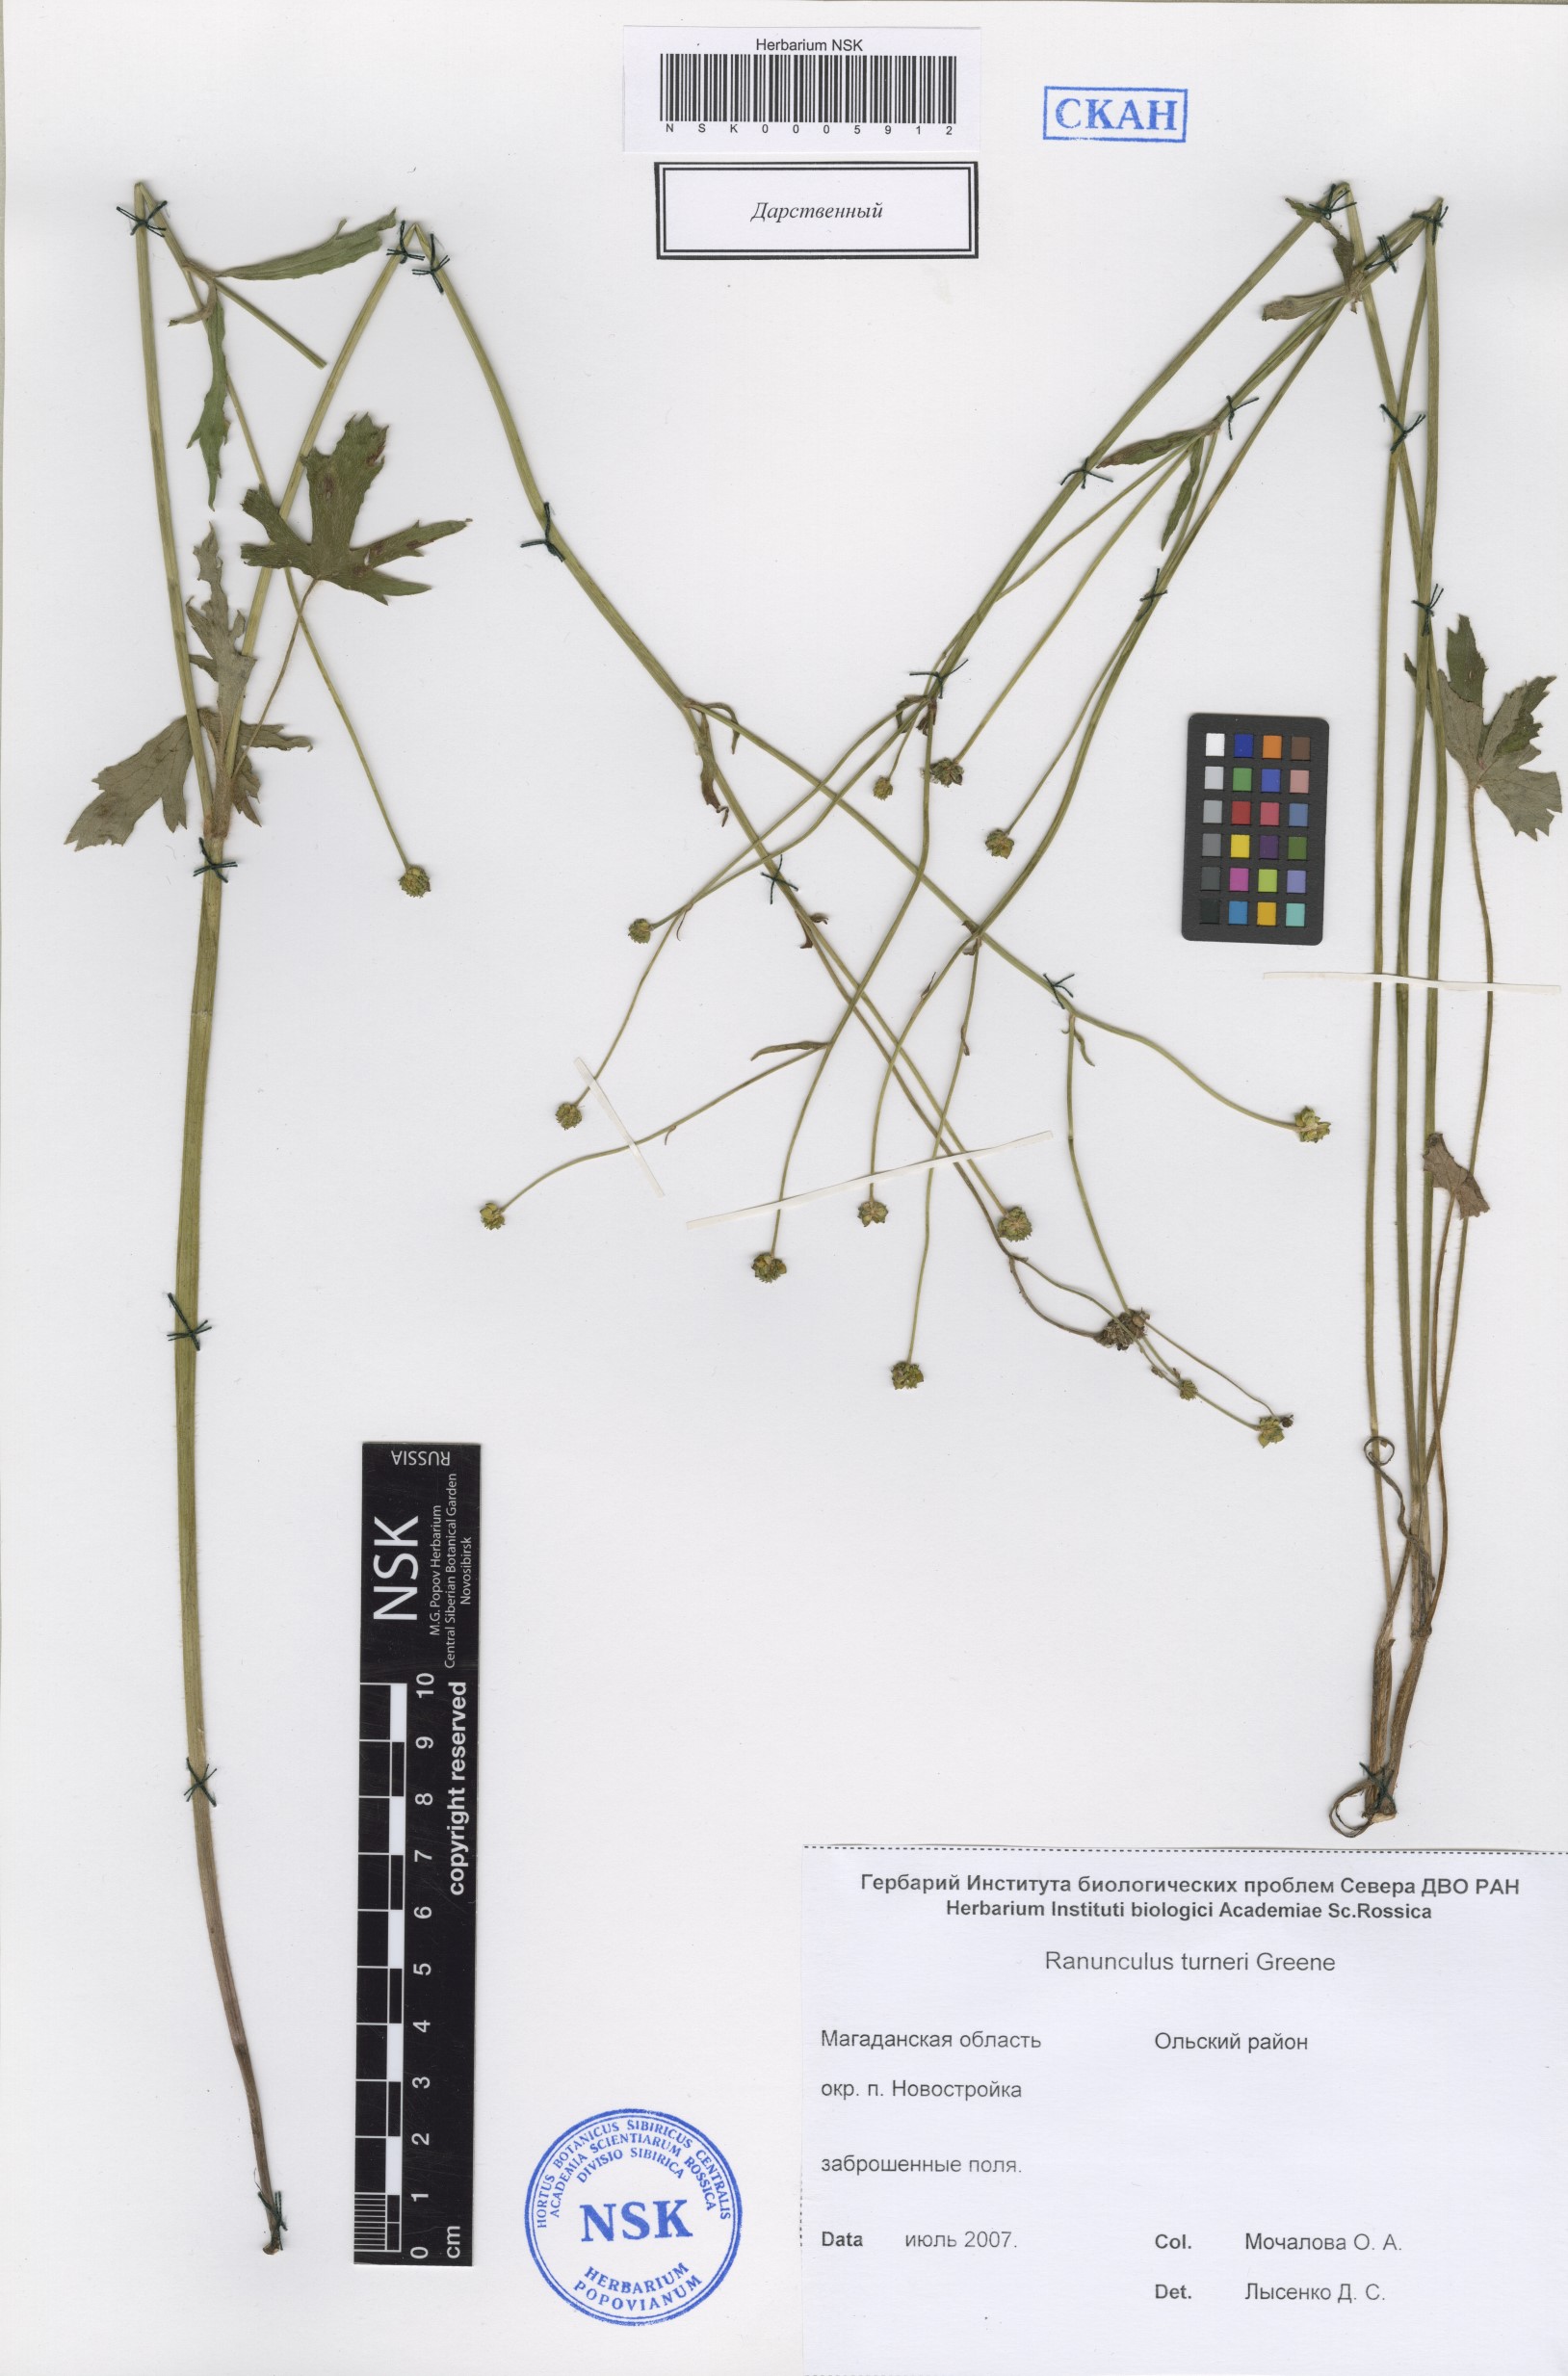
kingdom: Plantae
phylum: Tracheophyta
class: Magnoliopsida
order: Ranunculales
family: Ranunculaceae
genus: Ranunculus
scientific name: Ranunculus turneri
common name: Turner's buttercup
